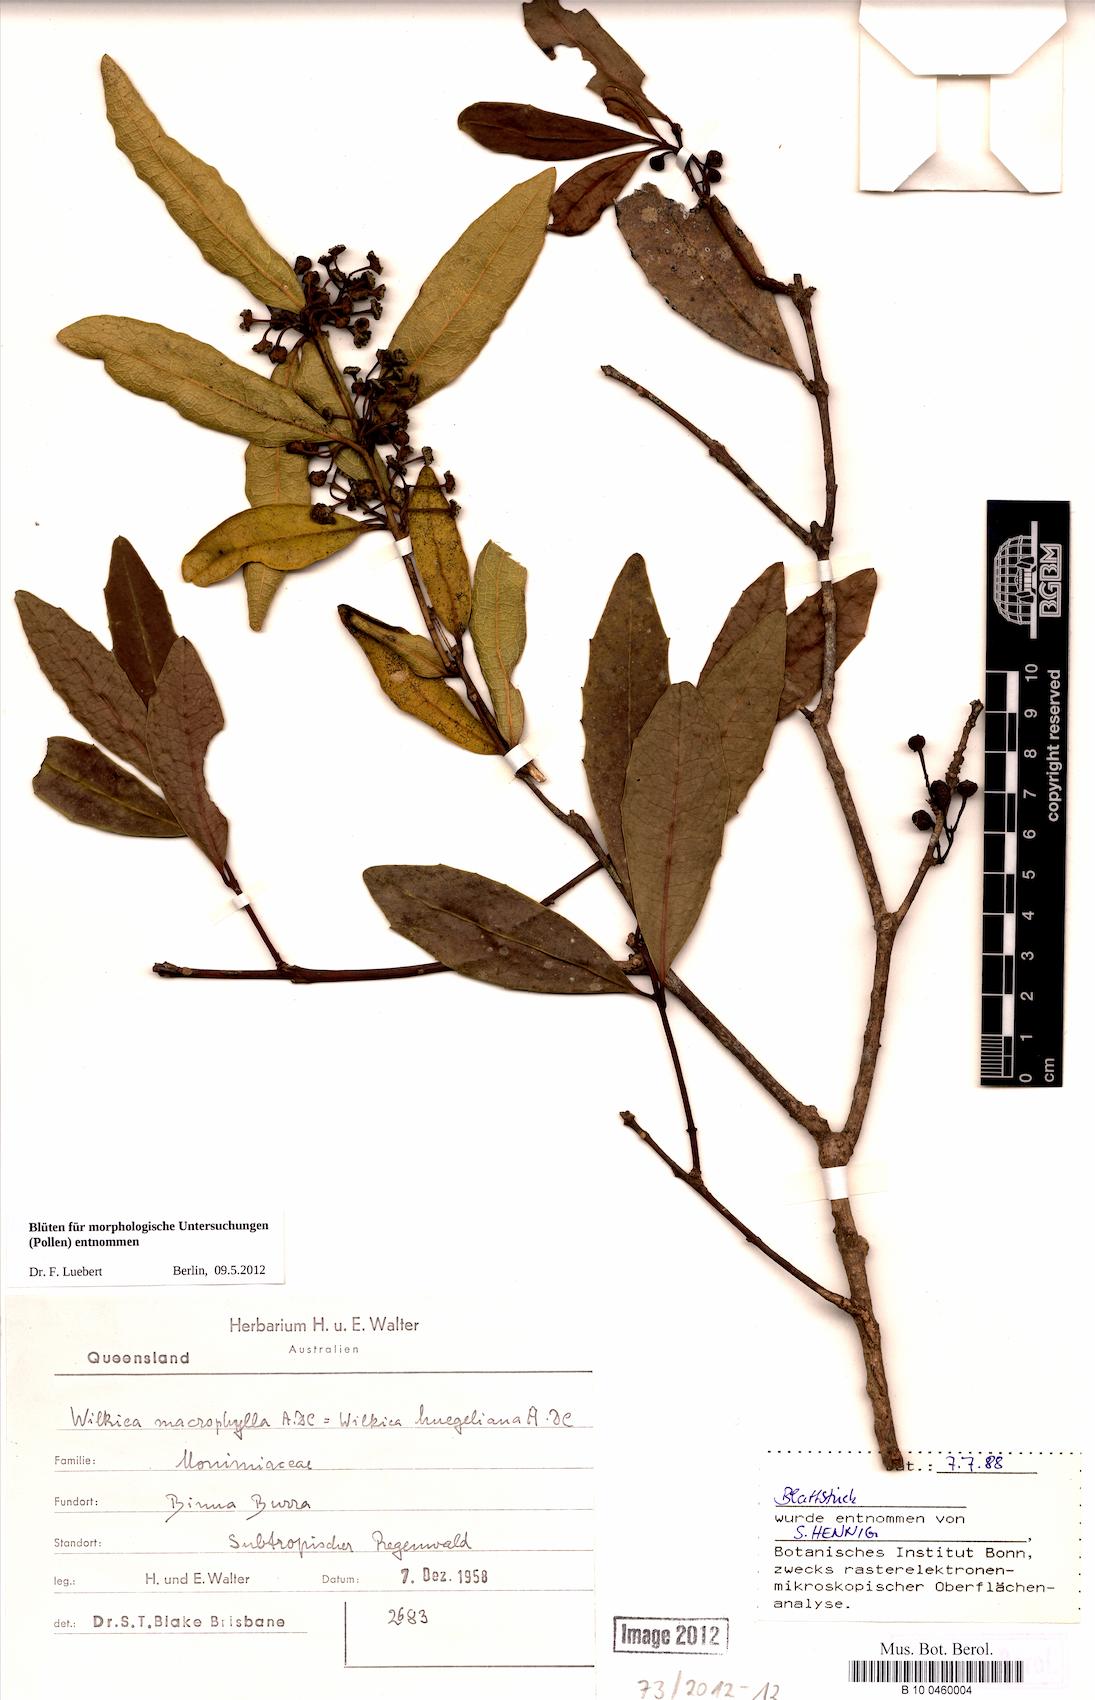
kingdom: Plantae
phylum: Tracheophyta
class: Magnoliopsida
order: Laurales
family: Monimiaceae
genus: Wilkiea
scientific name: Wilkiea macrophylla
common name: Large-leaved wilkiea
